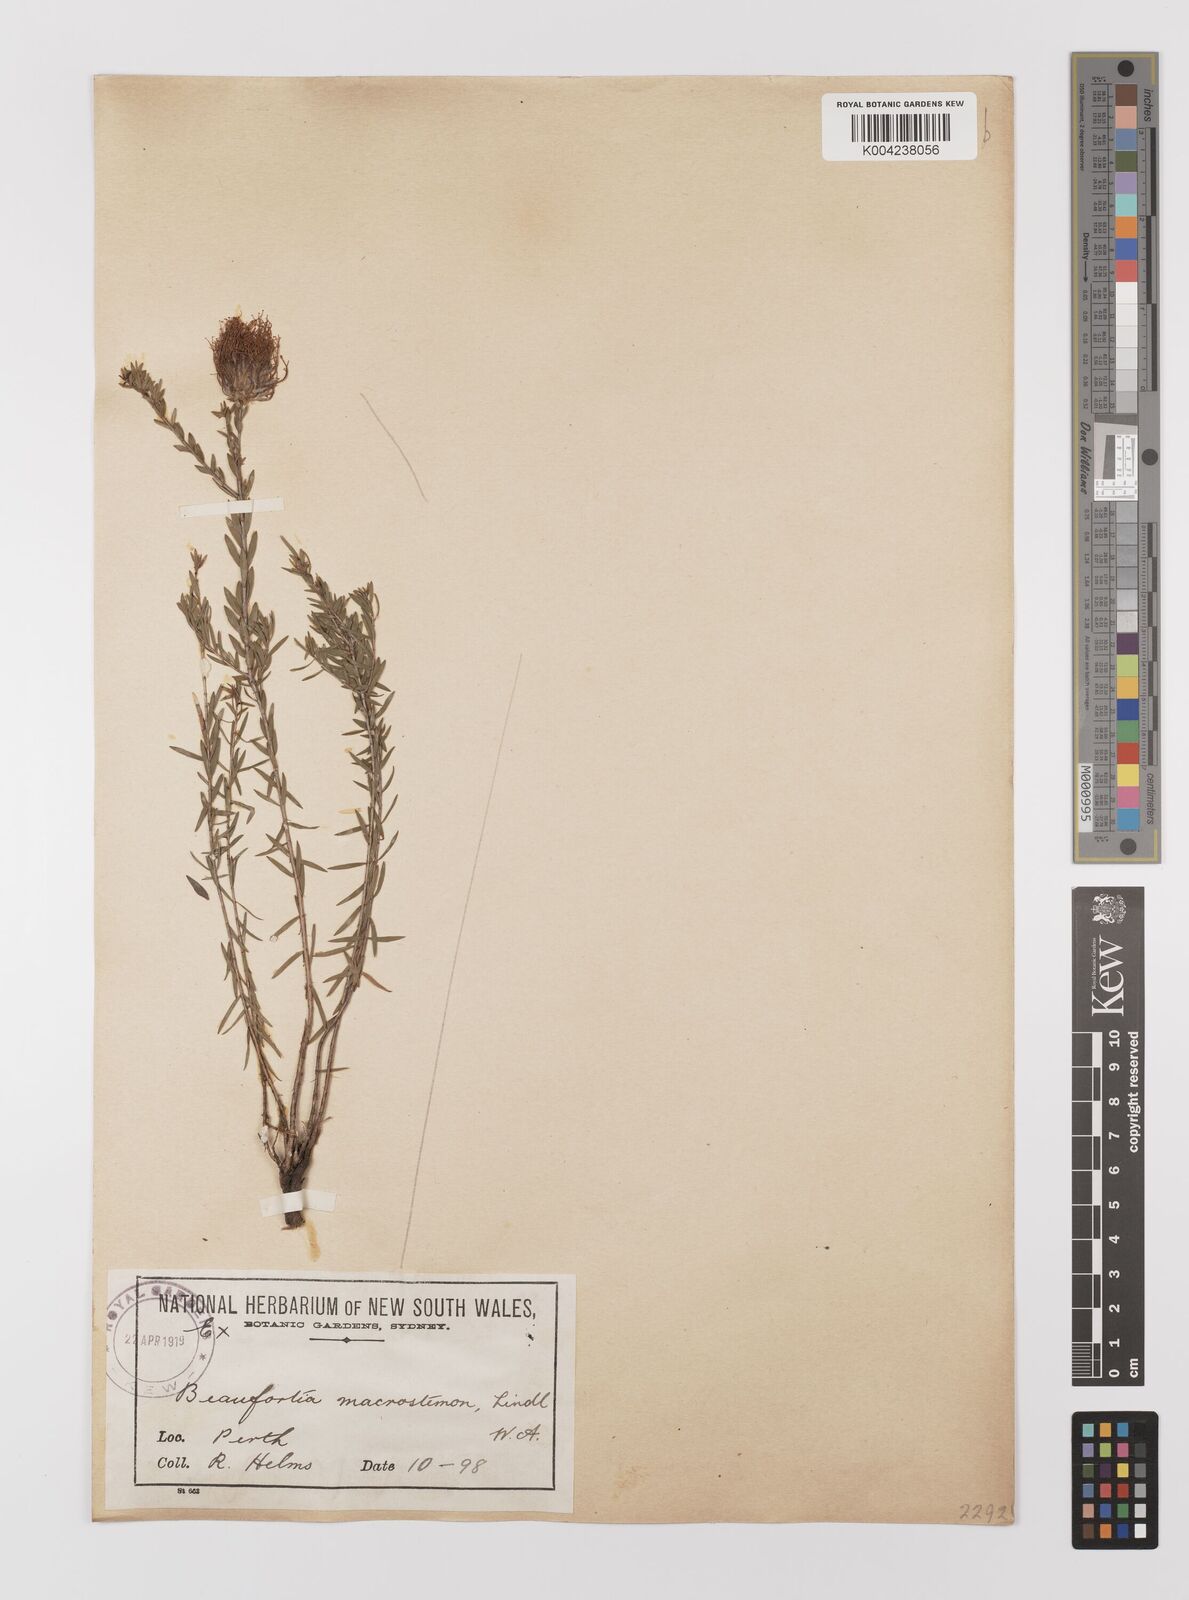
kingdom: Plantae
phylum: Tracheophyta
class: Magnoliopsida
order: Myrtales
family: Myrtaceae
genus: Melaleuca
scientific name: Melaleuca macrostemon
